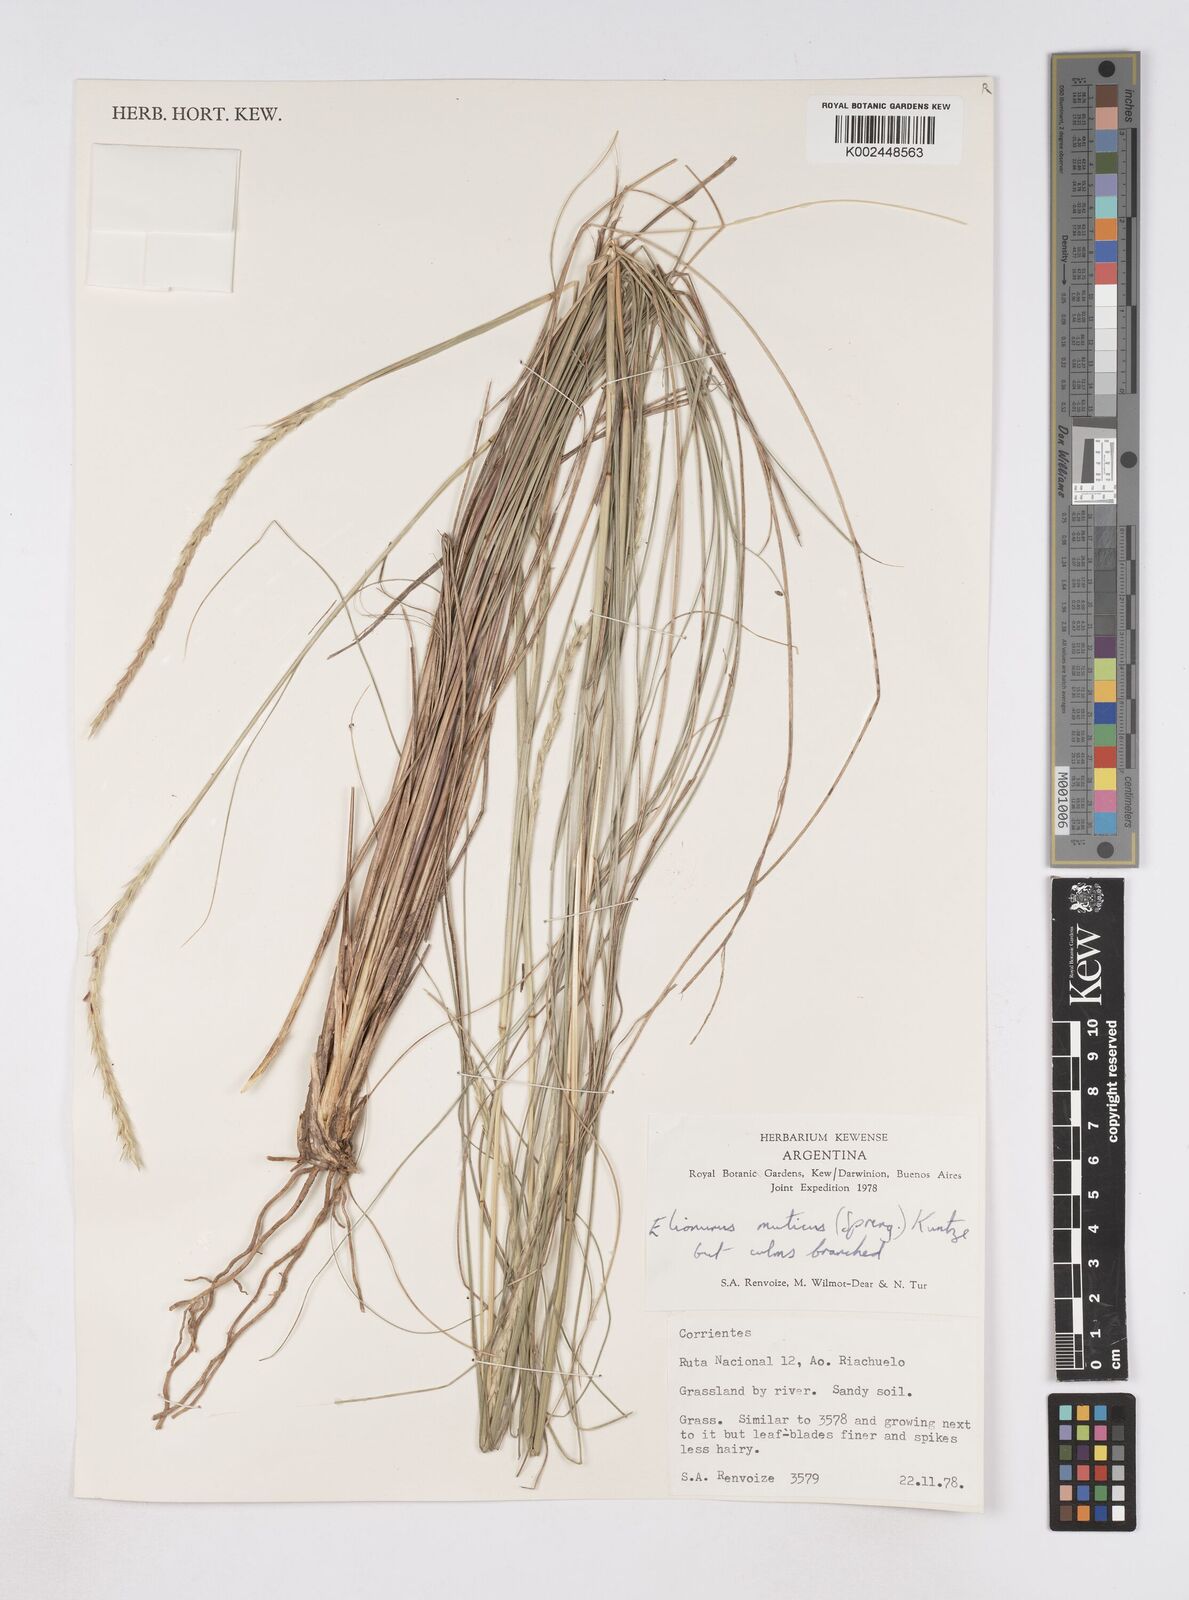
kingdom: Plantae
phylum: Tracheophyta
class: Liliopsida
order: Poales
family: Poaceae
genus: Elionurus
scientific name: Elionurus muticus
